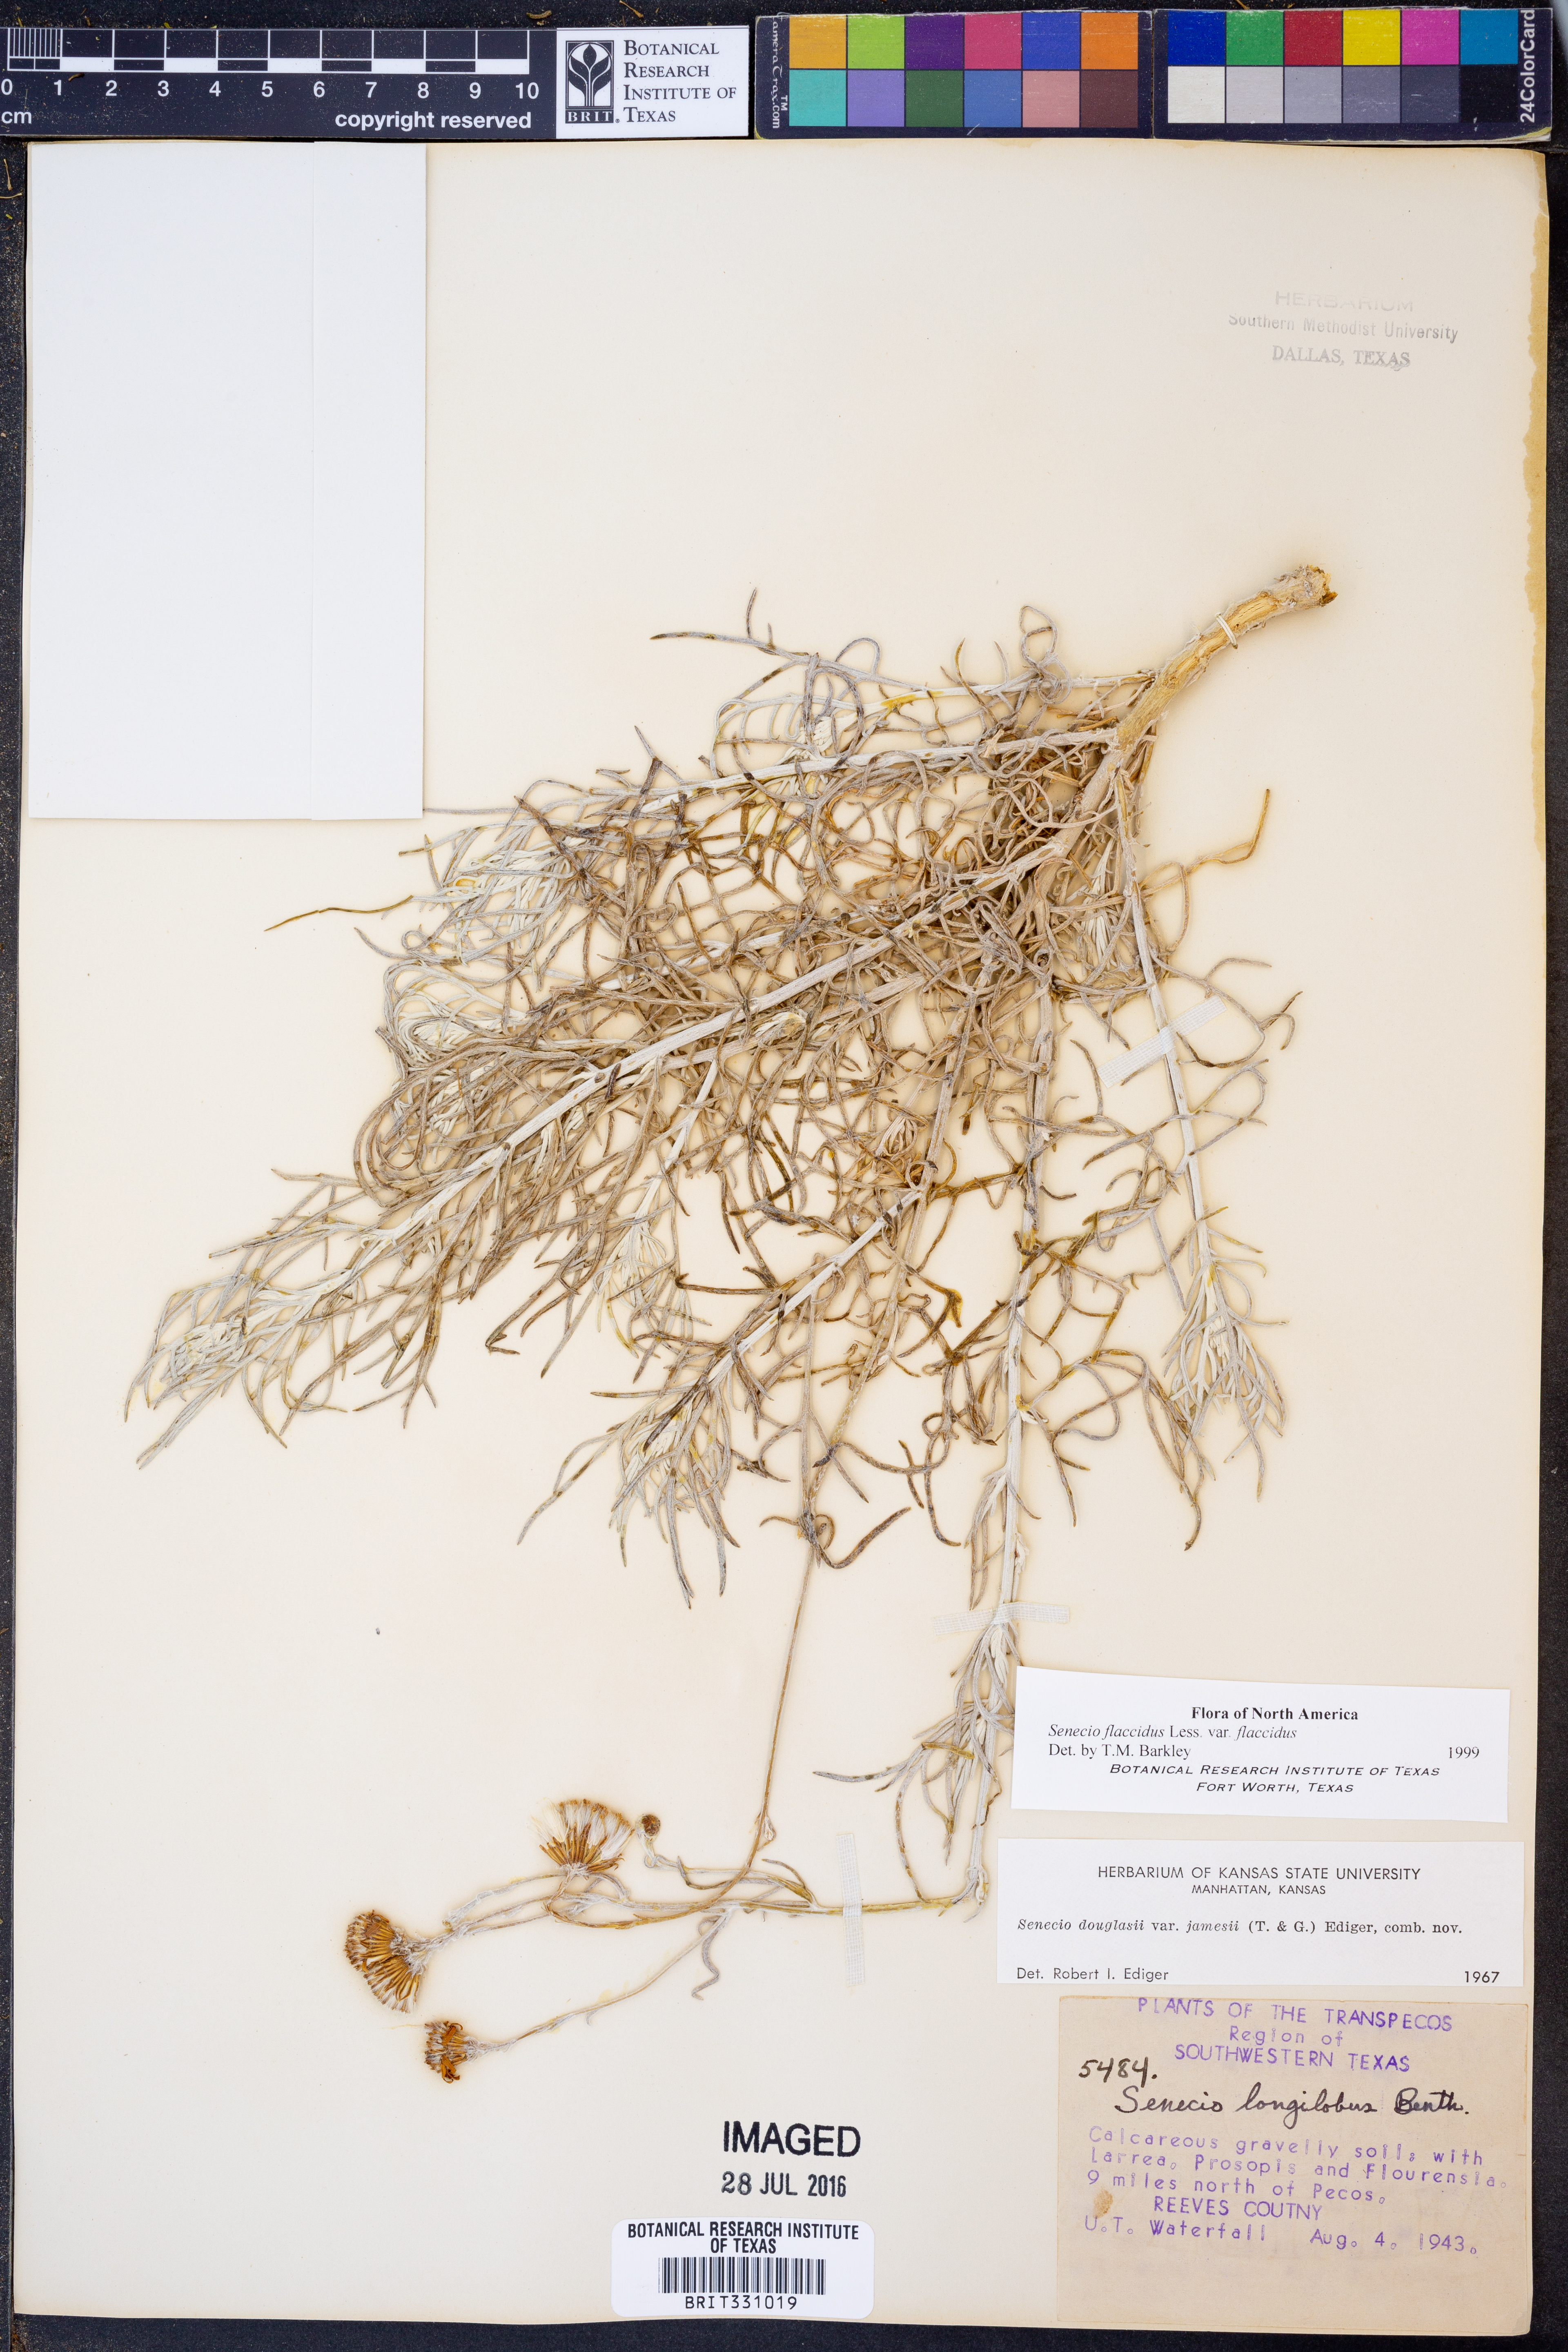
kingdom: Plantae
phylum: Tracheophyta
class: Magnoliopsida
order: Asterales
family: Asteraceae
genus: Senecio
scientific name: Senecio flaccidus
